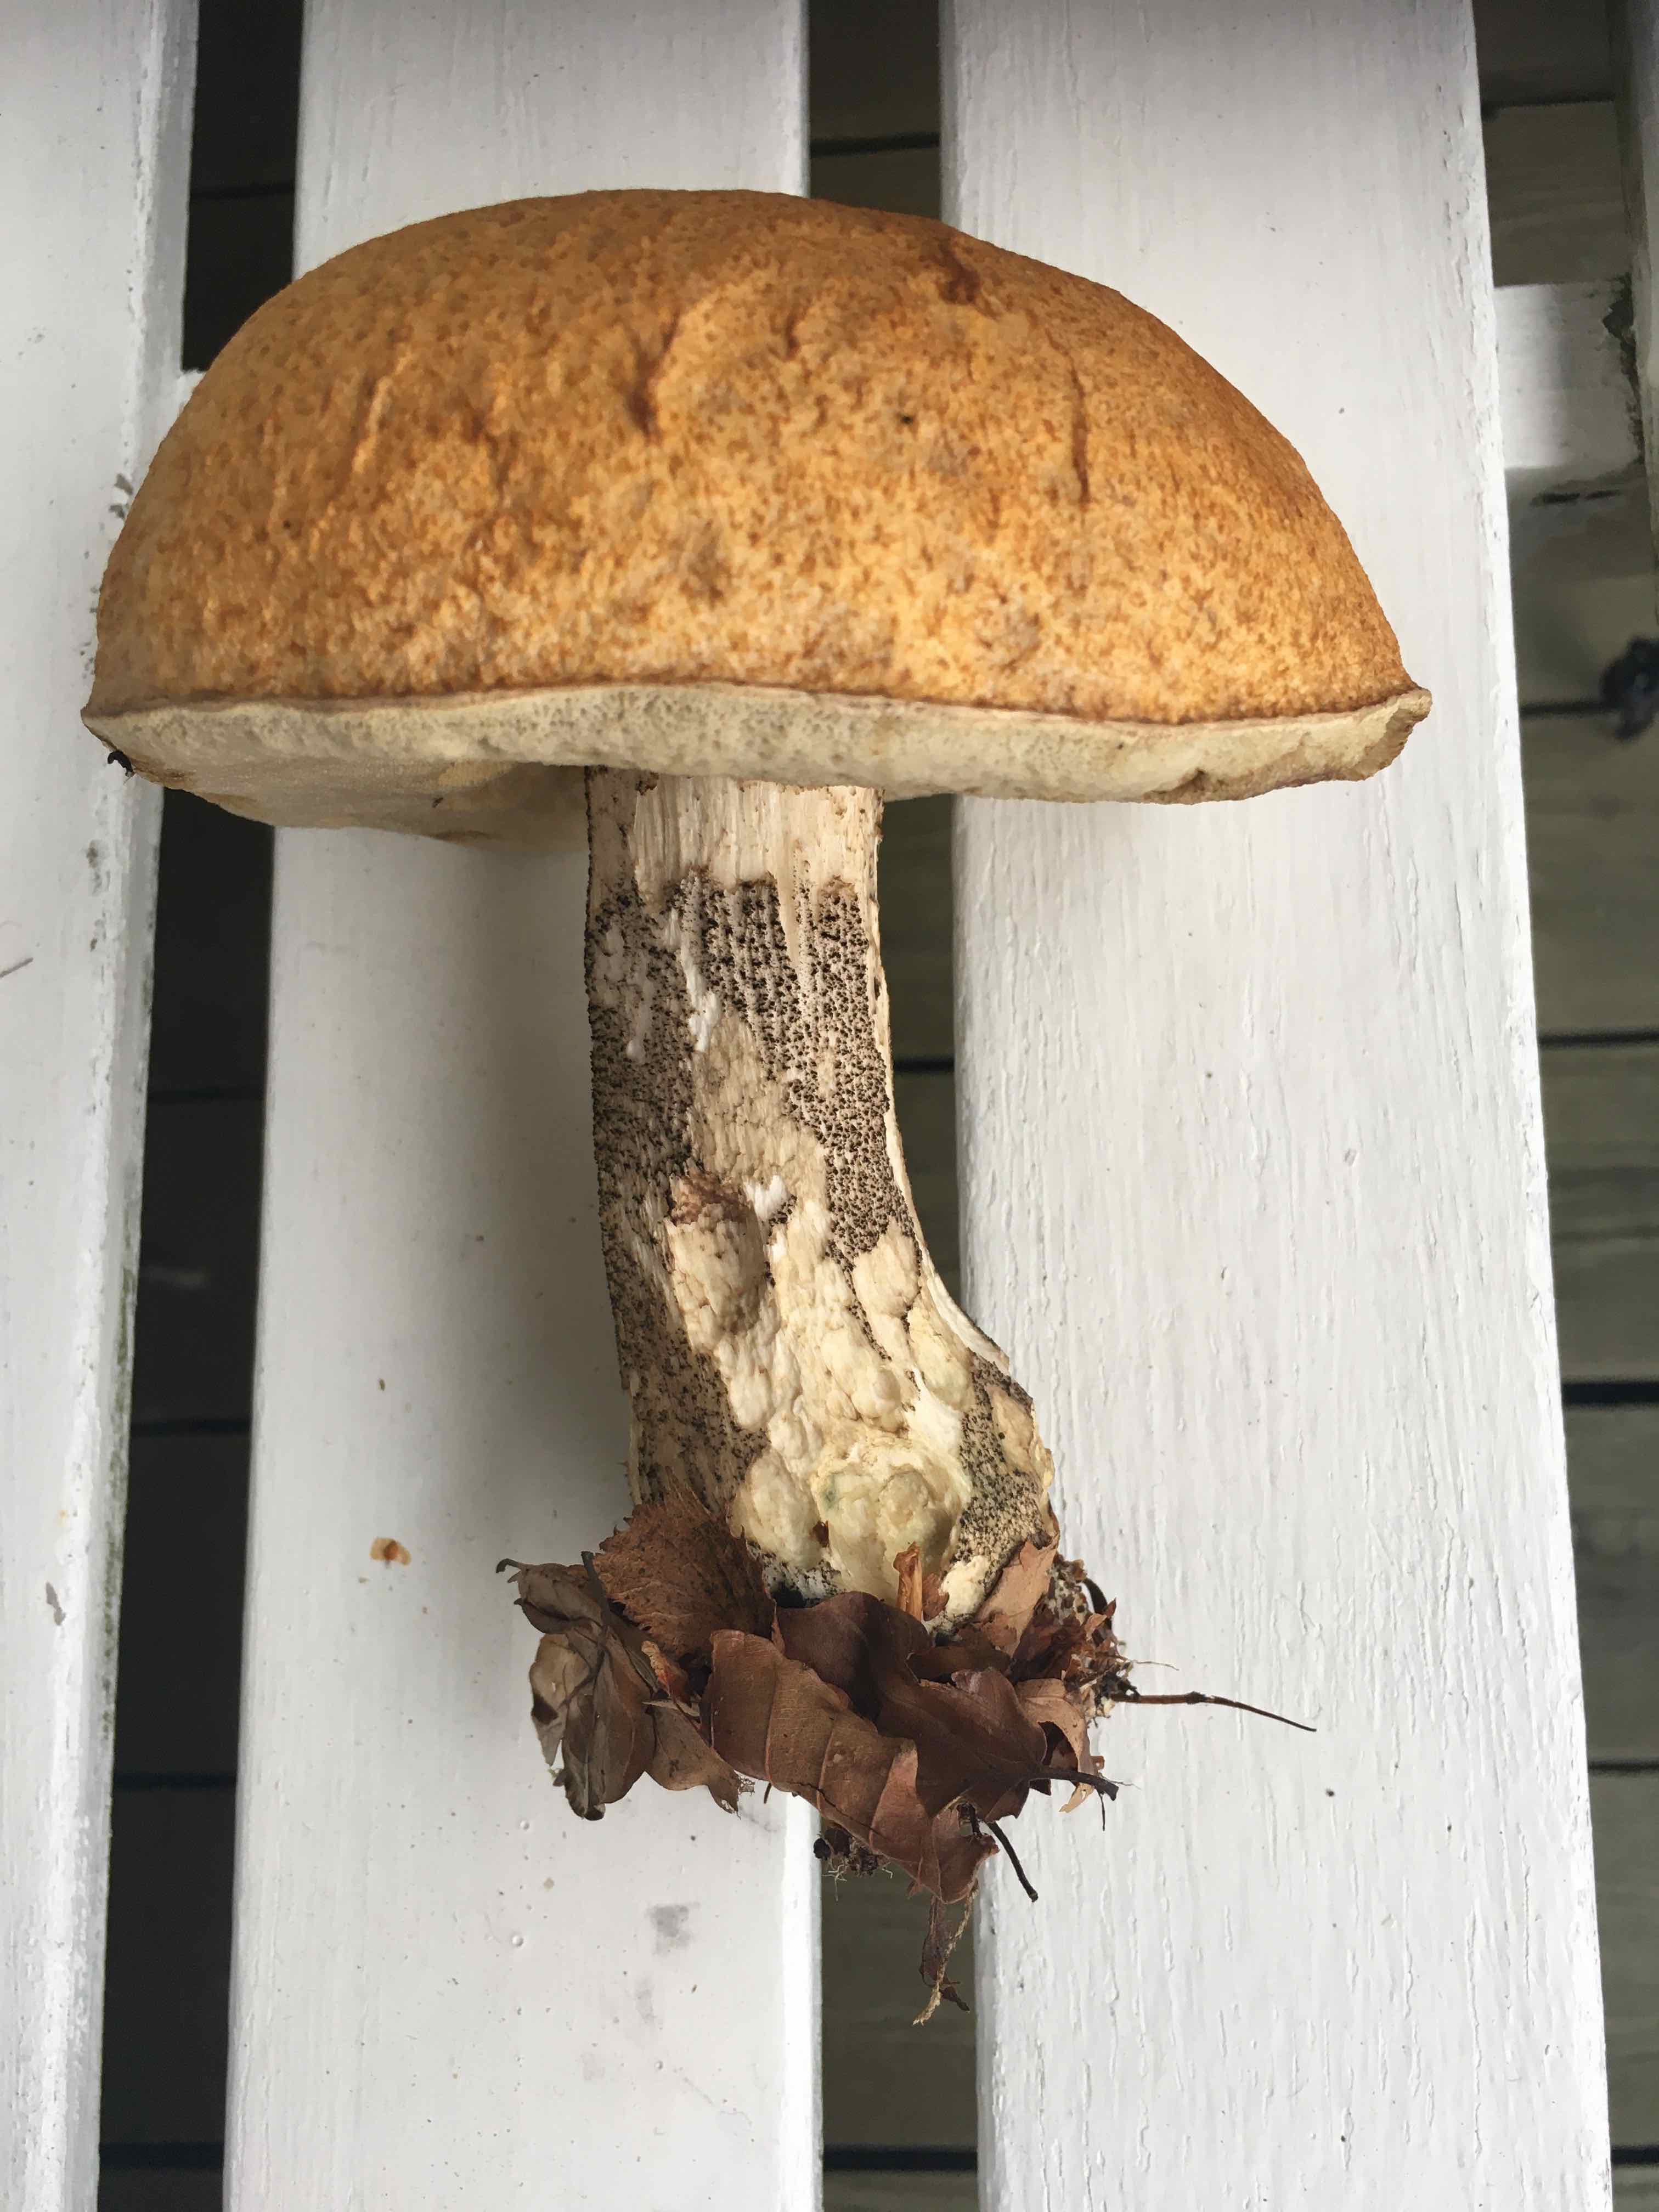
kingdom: Fungi
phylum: Basidiomycota
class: Agaricomycetes
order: Boletales
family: Boletaceae
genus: Leccinum
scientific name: Leccinum versipelle
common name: orange skælrørhat
